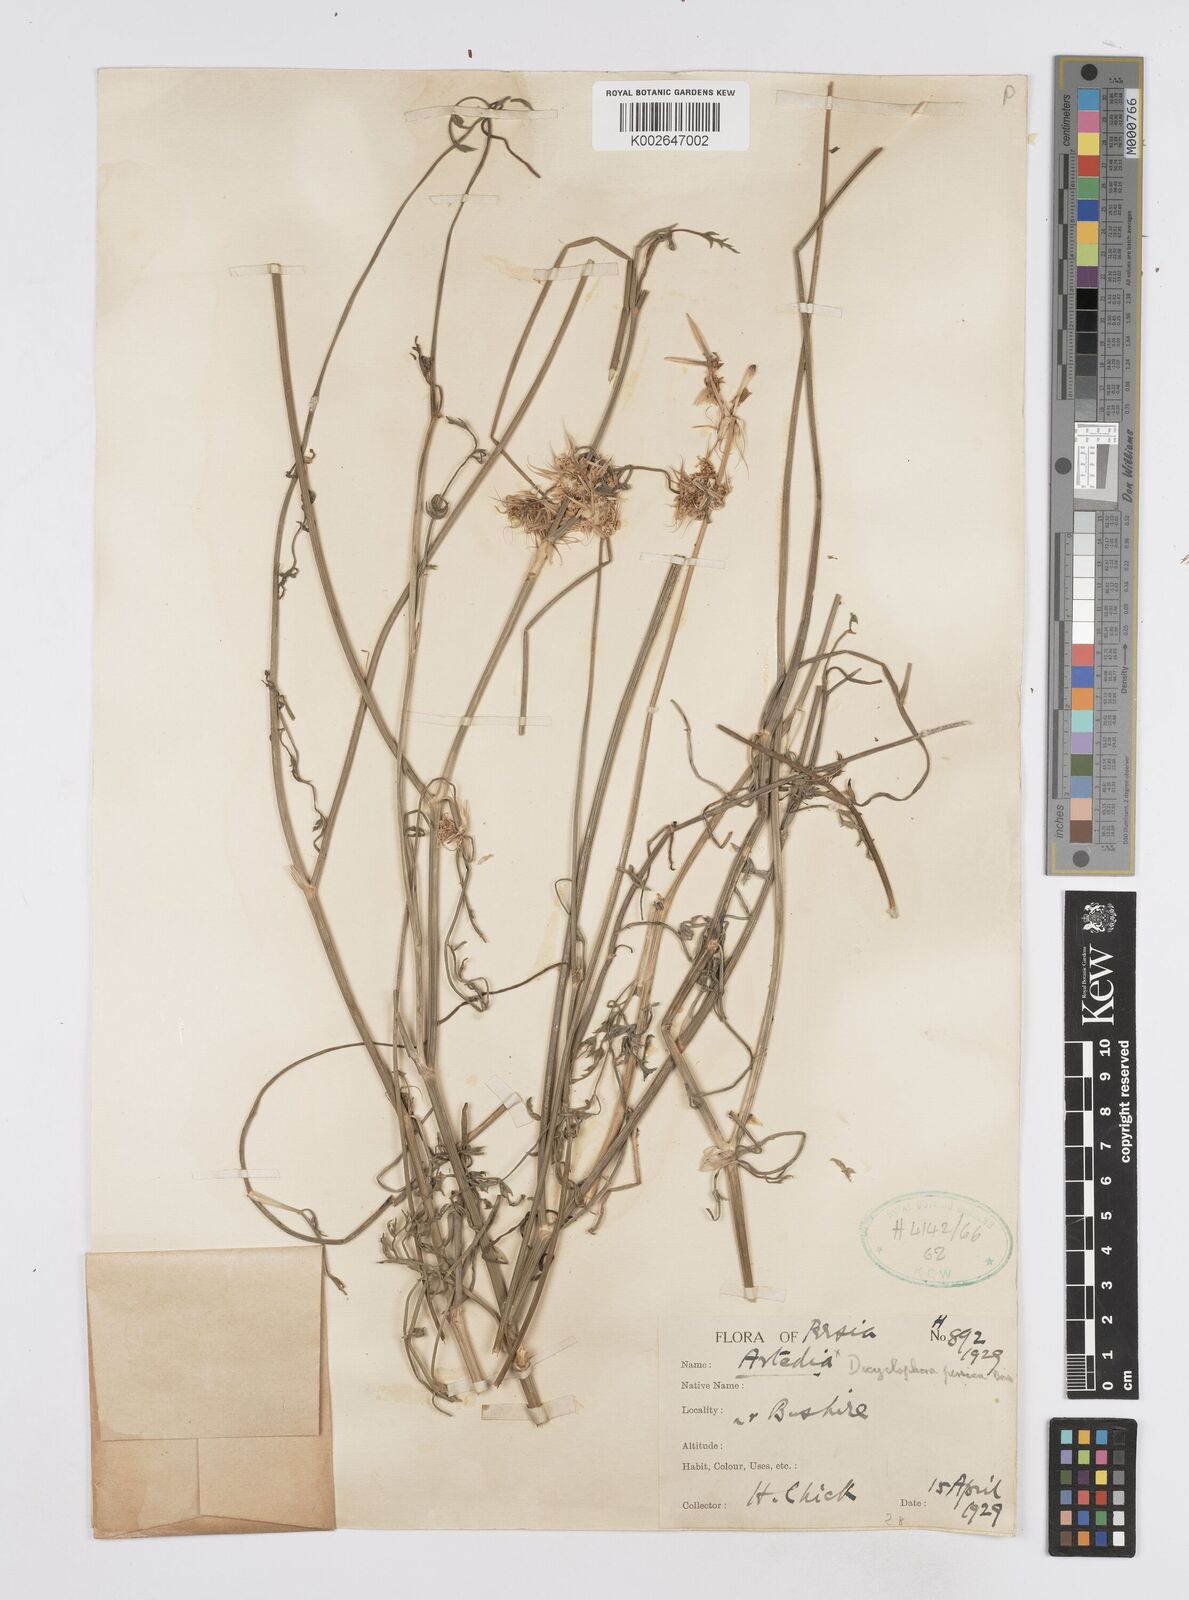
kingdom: Plantae
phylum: Tracheophyta
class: Magnoliopsida
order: Apiales
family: Apiaceae
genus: Dicyclophora
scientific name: Dicyclophora persica
